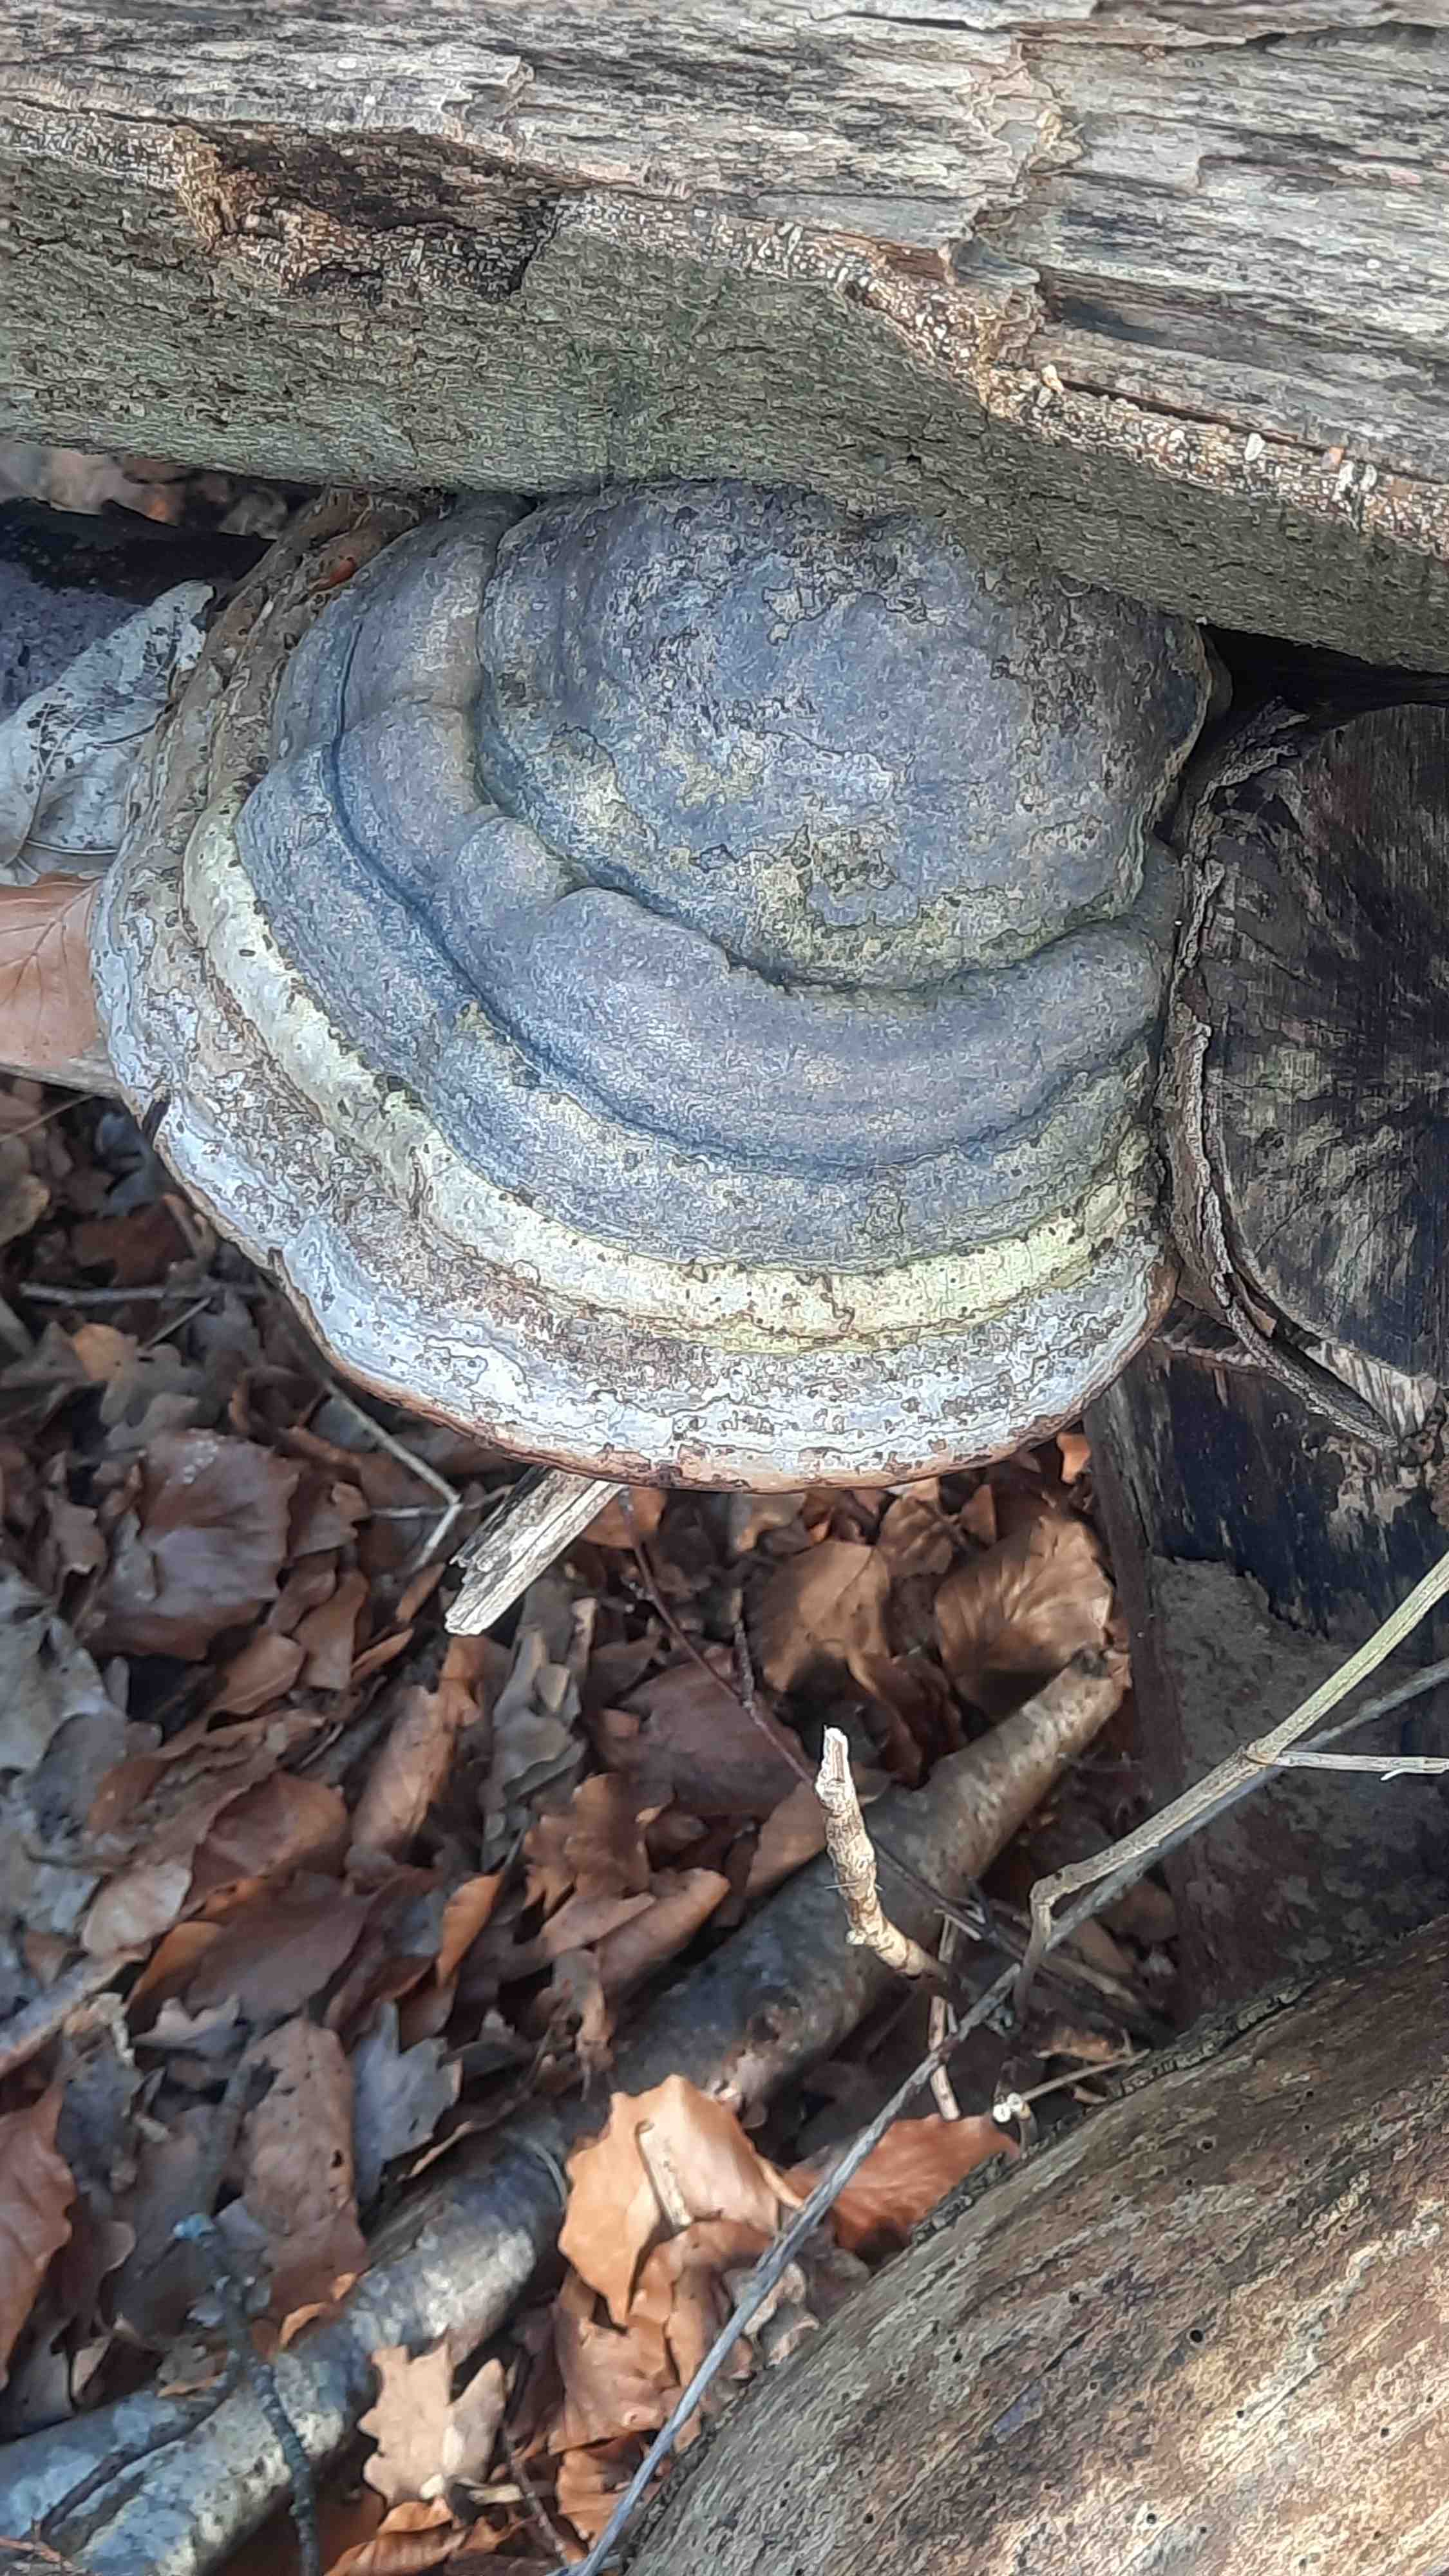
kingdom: Fungi
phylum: Basidiomycota
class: Agaricomycetes
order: Polyporales
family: Polyporaceae
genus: Fomes
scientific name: Fomes fomentarius
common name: tøndersvamp
